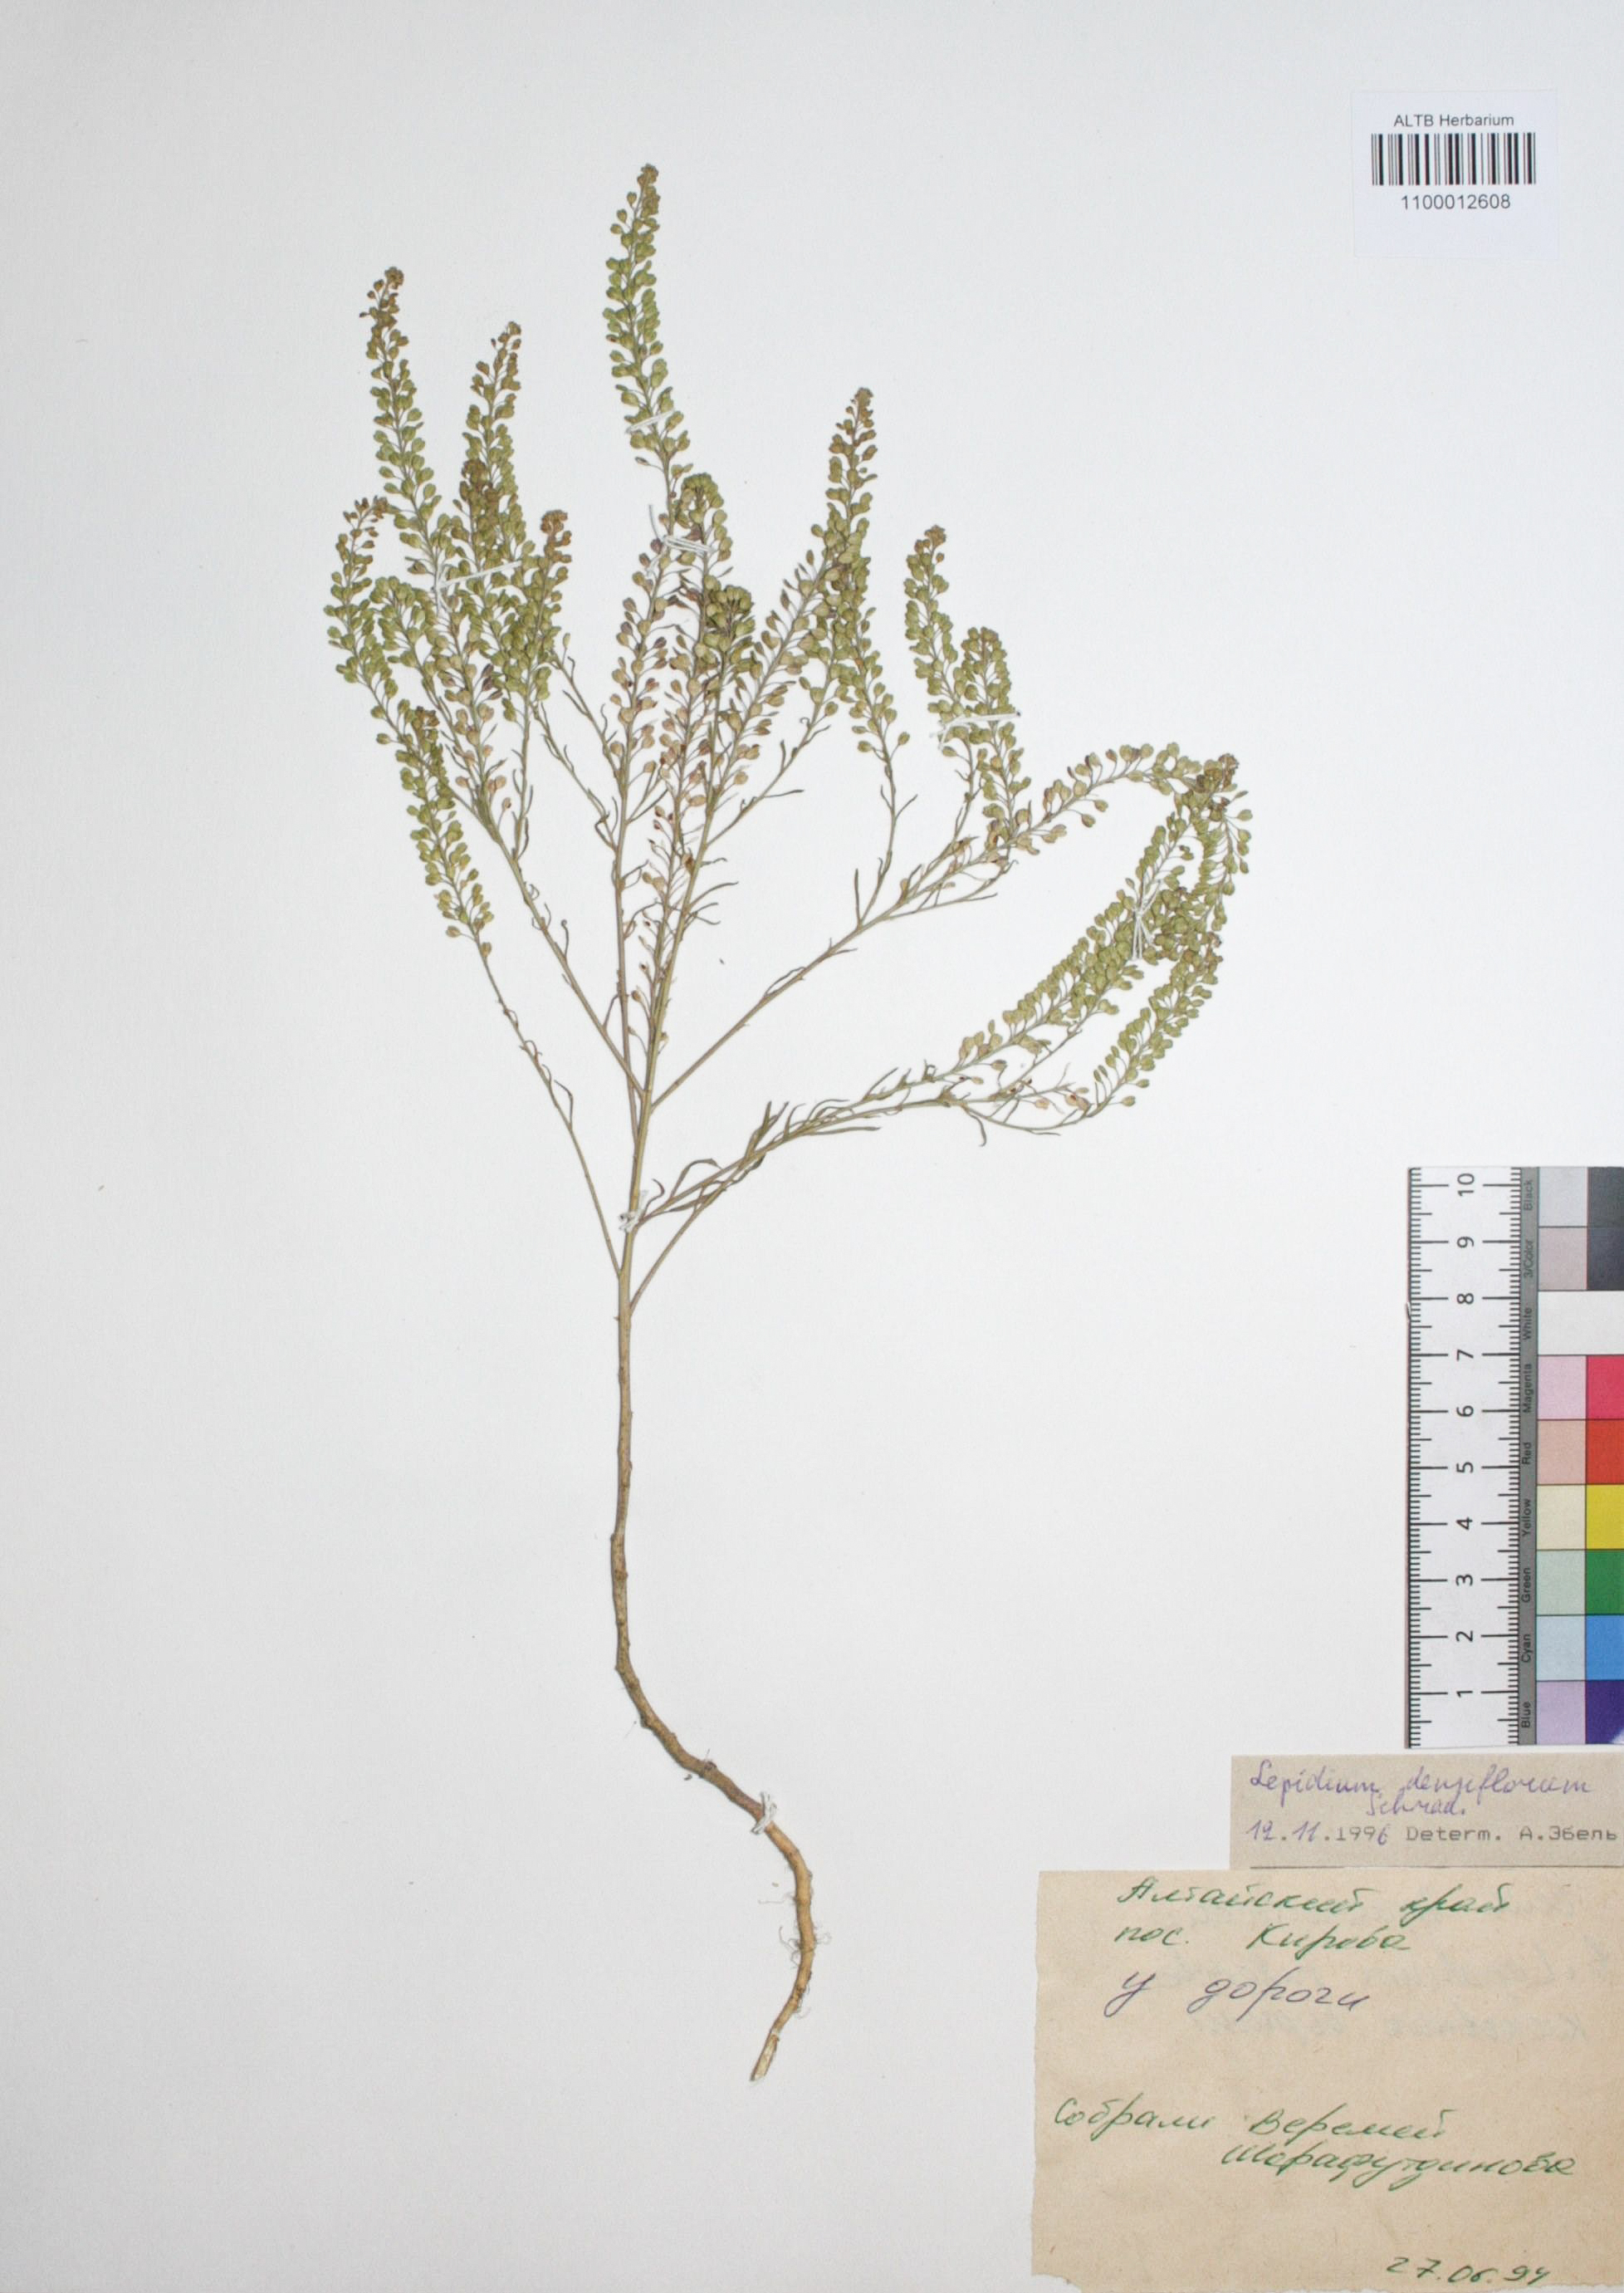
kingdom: Plantae
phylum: Tracheophyta
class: Magnoliopsida
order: Brassicales
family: Brassicaceae
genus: Lepidium
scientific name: Lepidium densiflorum
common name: Miner's pepperwort
